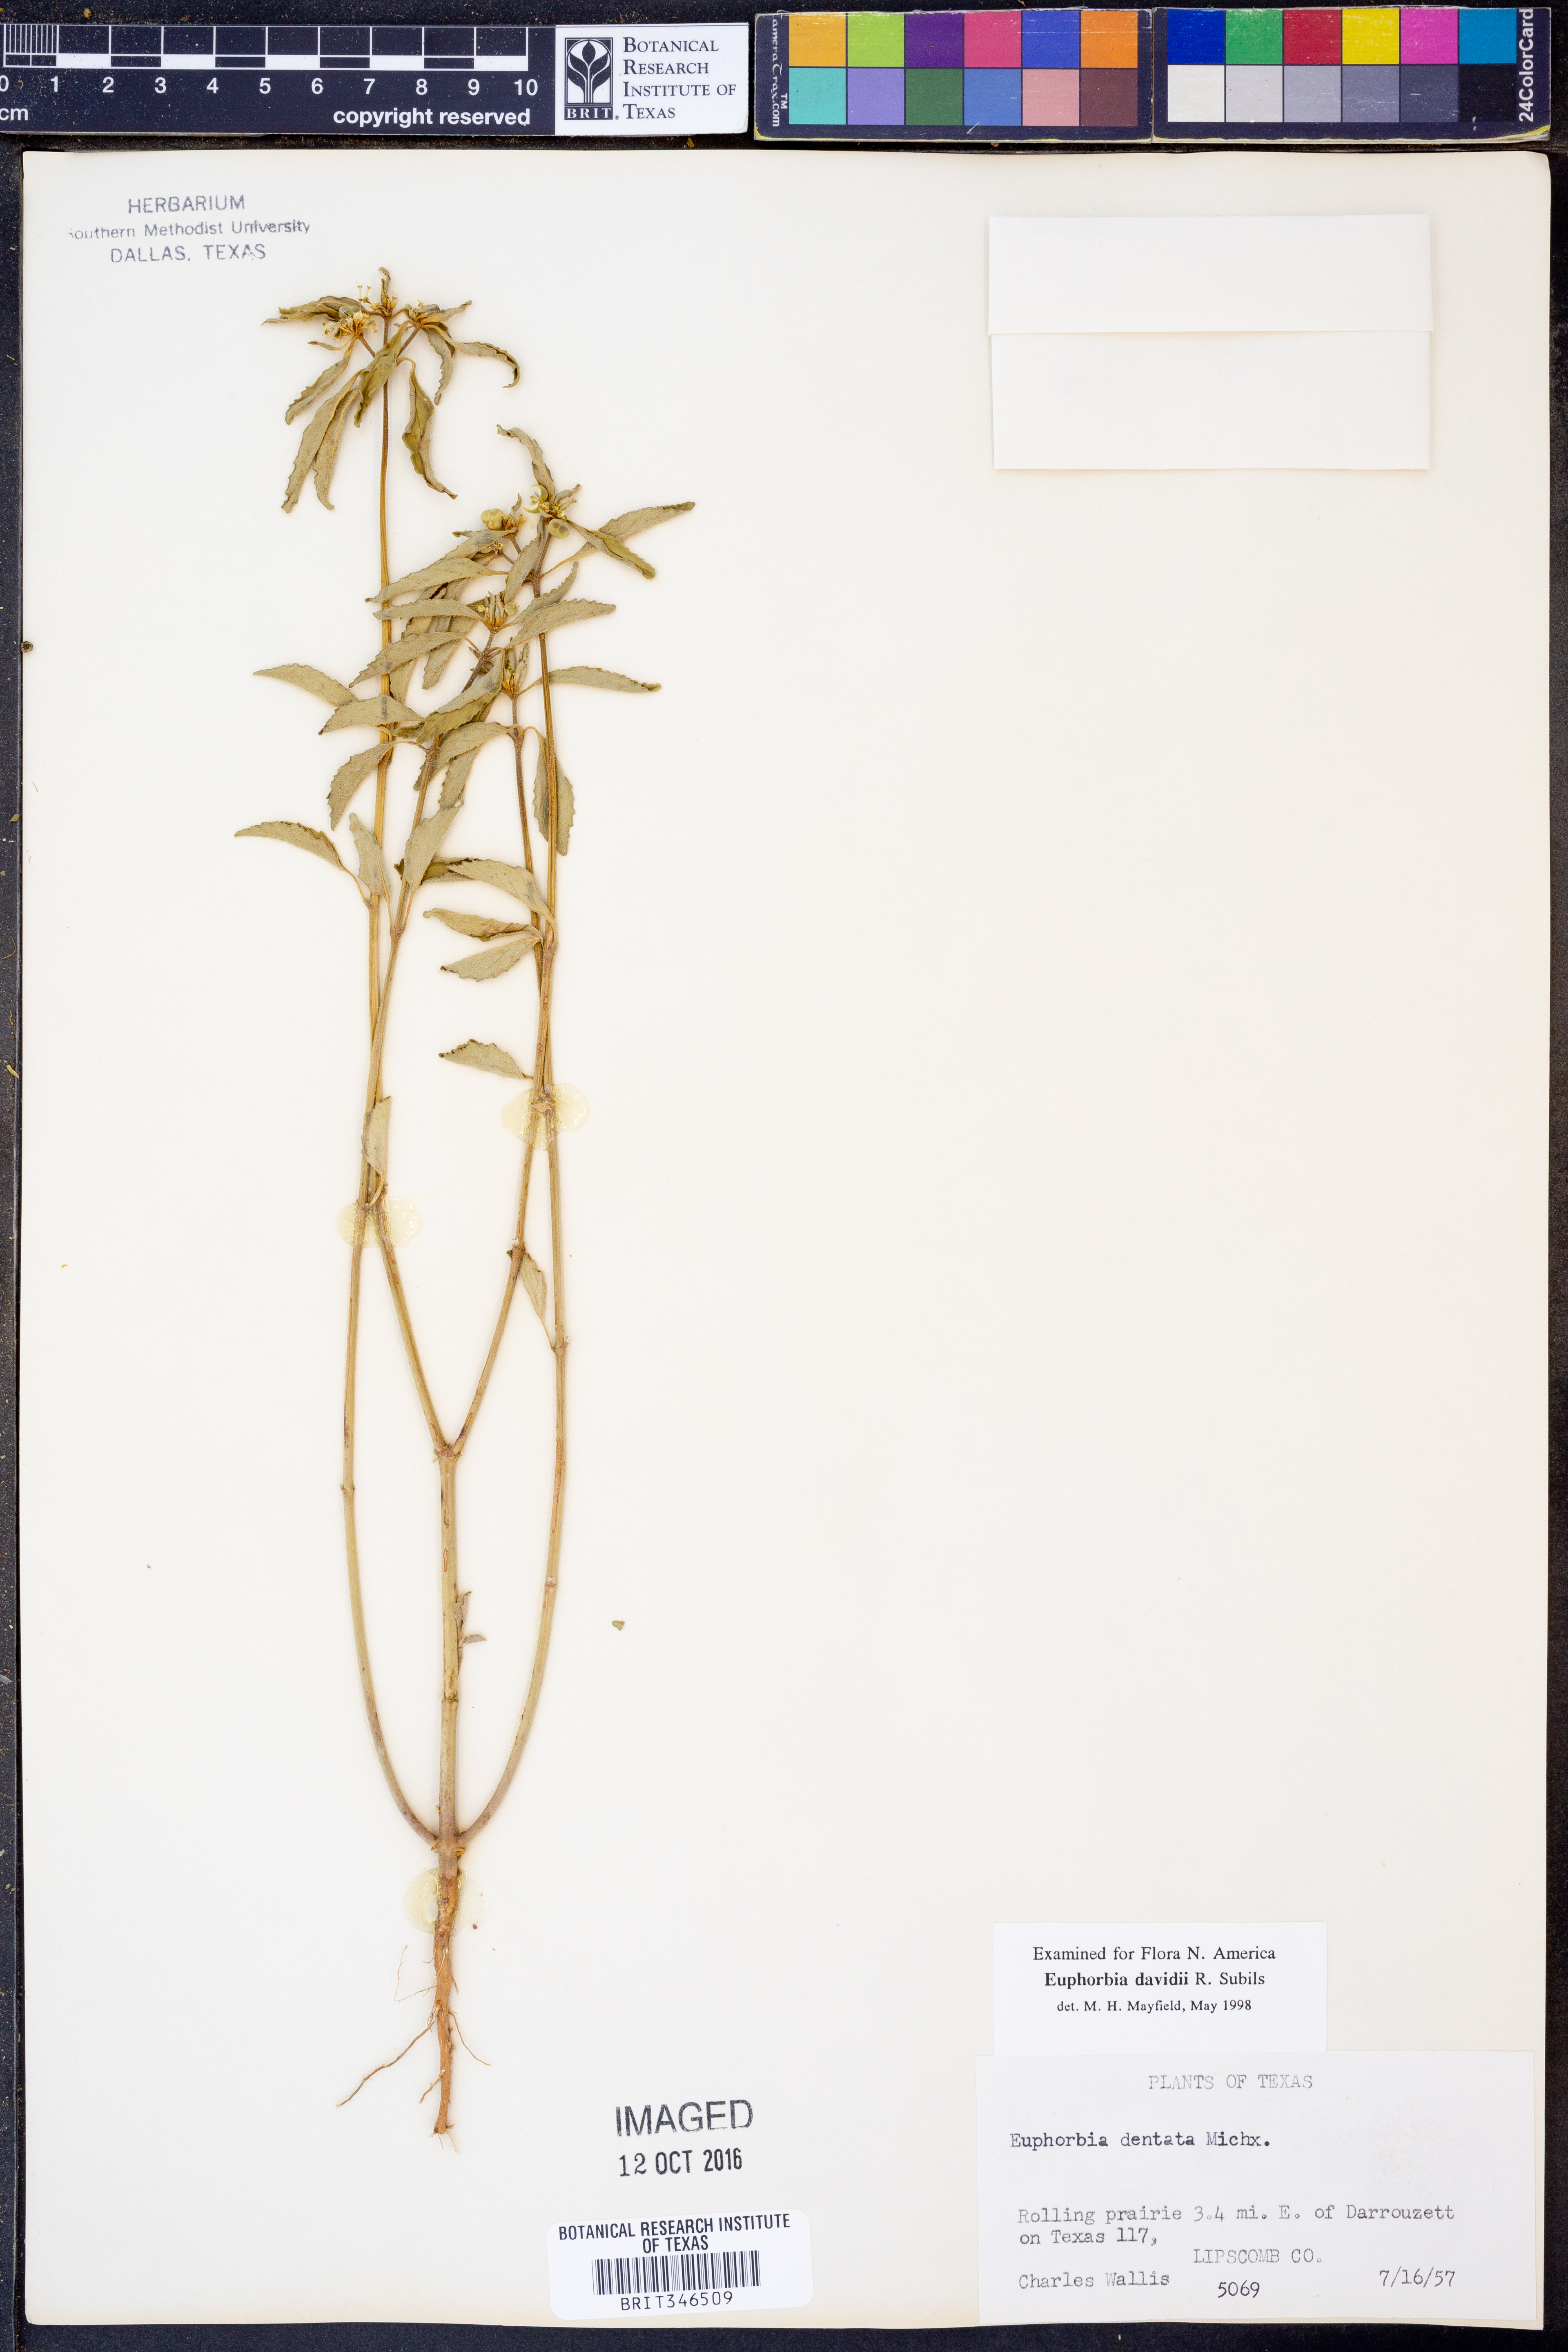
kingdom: Plantae
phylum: Tracheophyta
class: Magnoliopsida
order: Malpighiales
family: Euphorbiaceae
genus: Euphorbia
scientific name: Euphorbia davidii
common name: David's spurge
